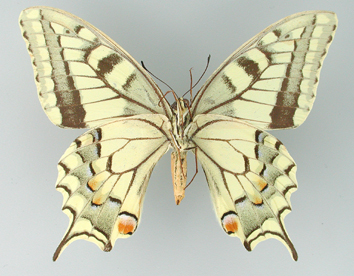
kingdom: Animalia
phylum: Arthropoda
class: Insecta
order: Lepidoptera
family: Papilionidae
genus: Papilio
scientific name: Papilio machaon
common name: Swallowtail
